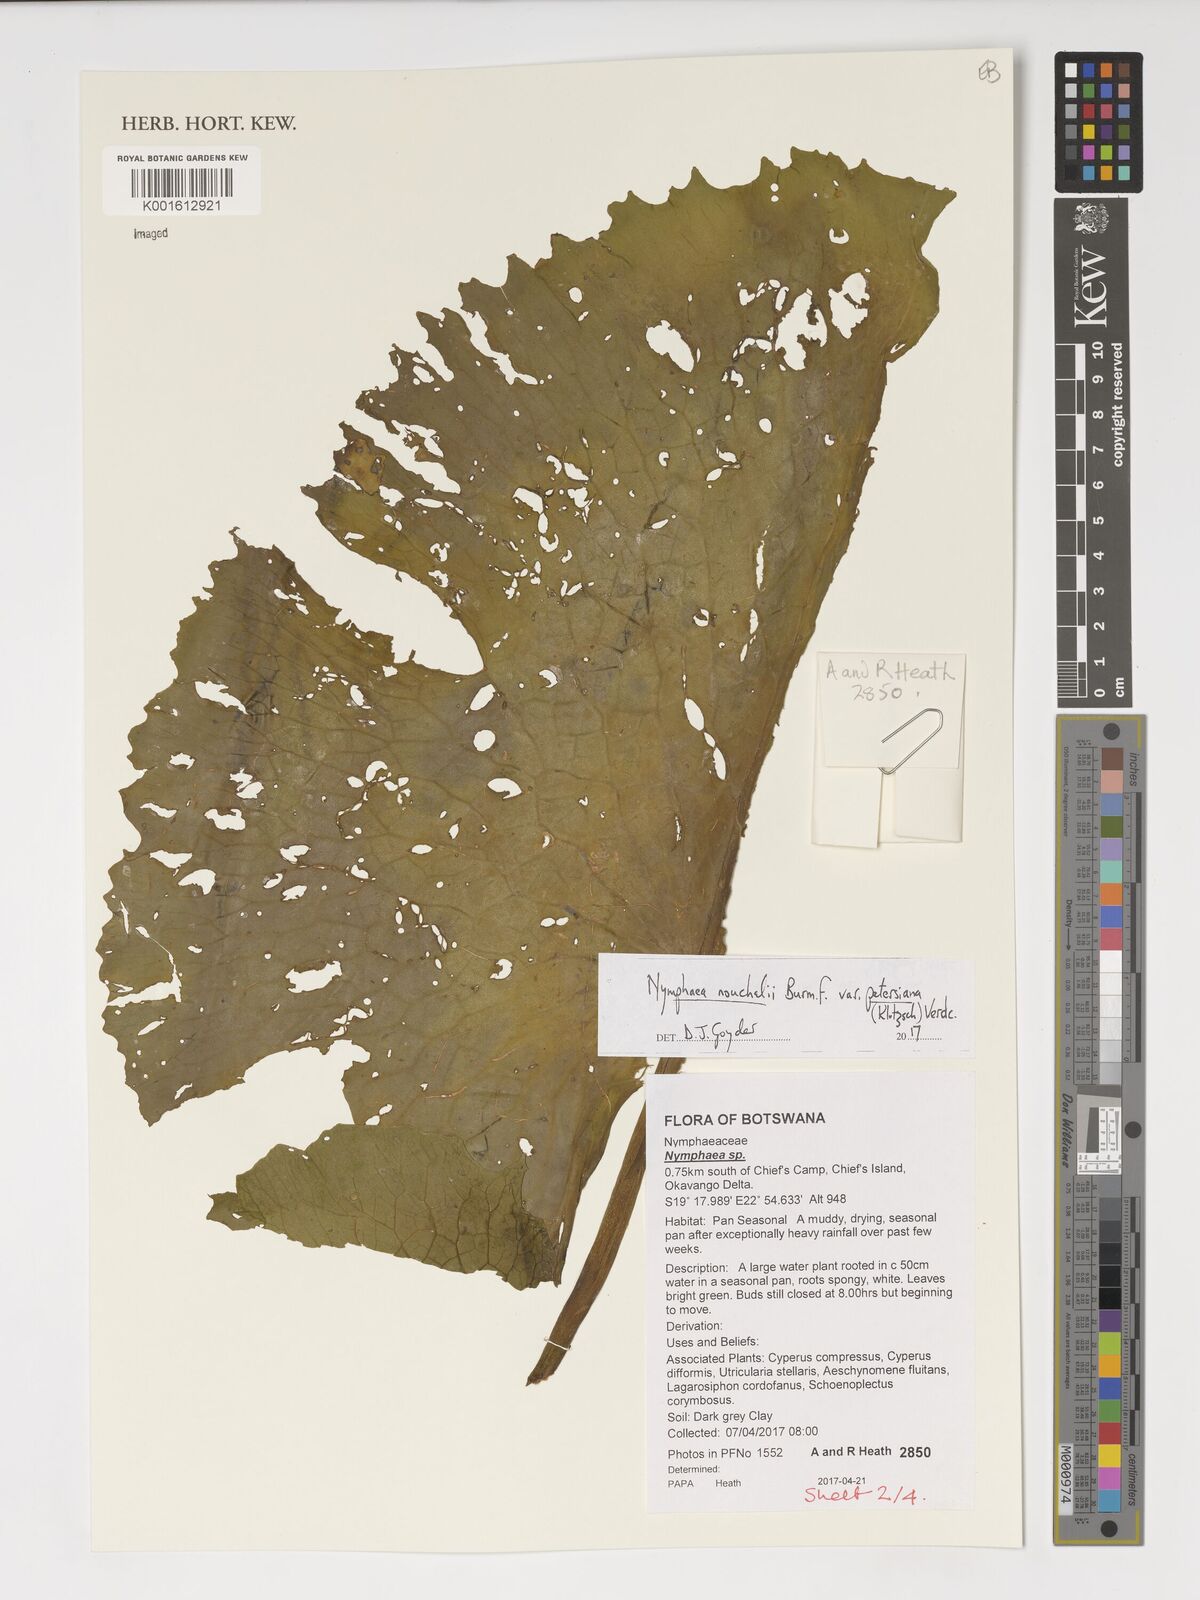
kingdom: Plantae
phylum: Tracheophyta
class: Magnoliopsida
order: Nymphaeales
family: Nymphaeaceae
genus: Nymphaea
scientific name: Nymphaea nouchali
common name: Blue lotus
